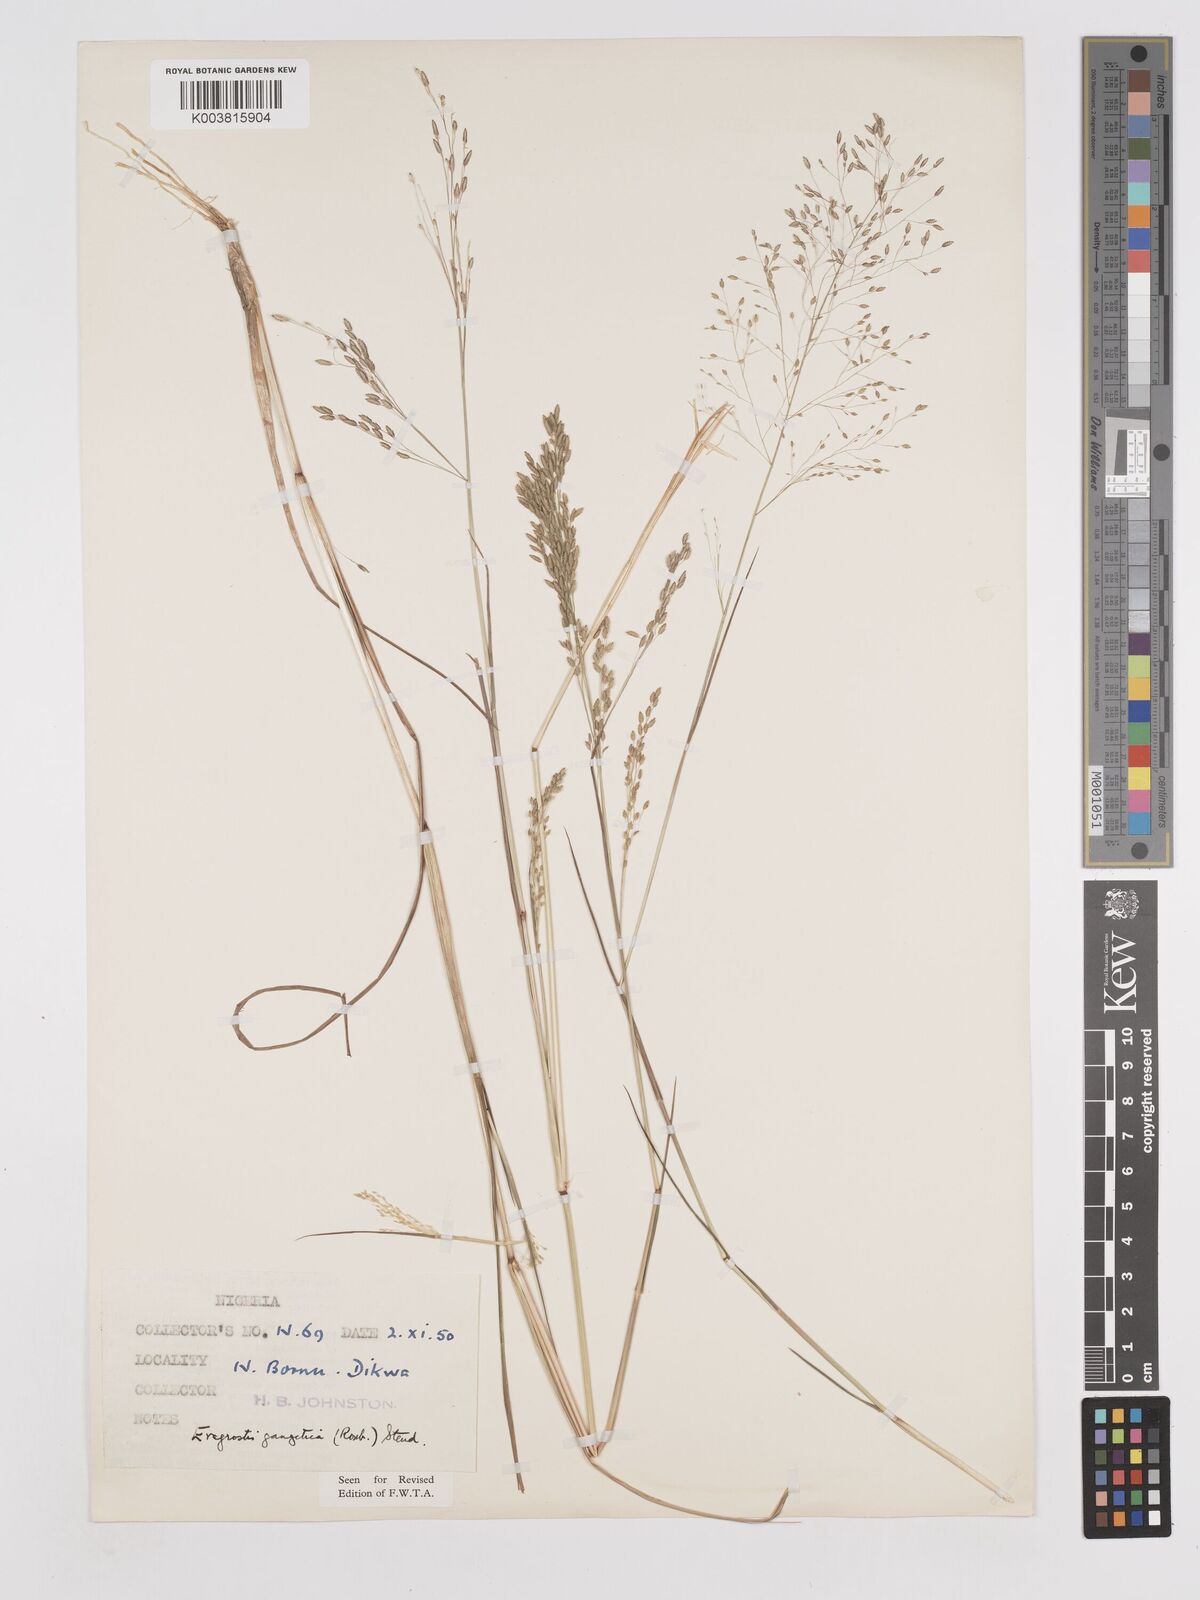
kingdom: Plantae
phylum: Tracheophyta
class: Liliopsida
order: Poales
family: Poaceae
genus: Eragrostis
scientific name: Eragrostis gangetica
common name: Slimflower lovegrass
